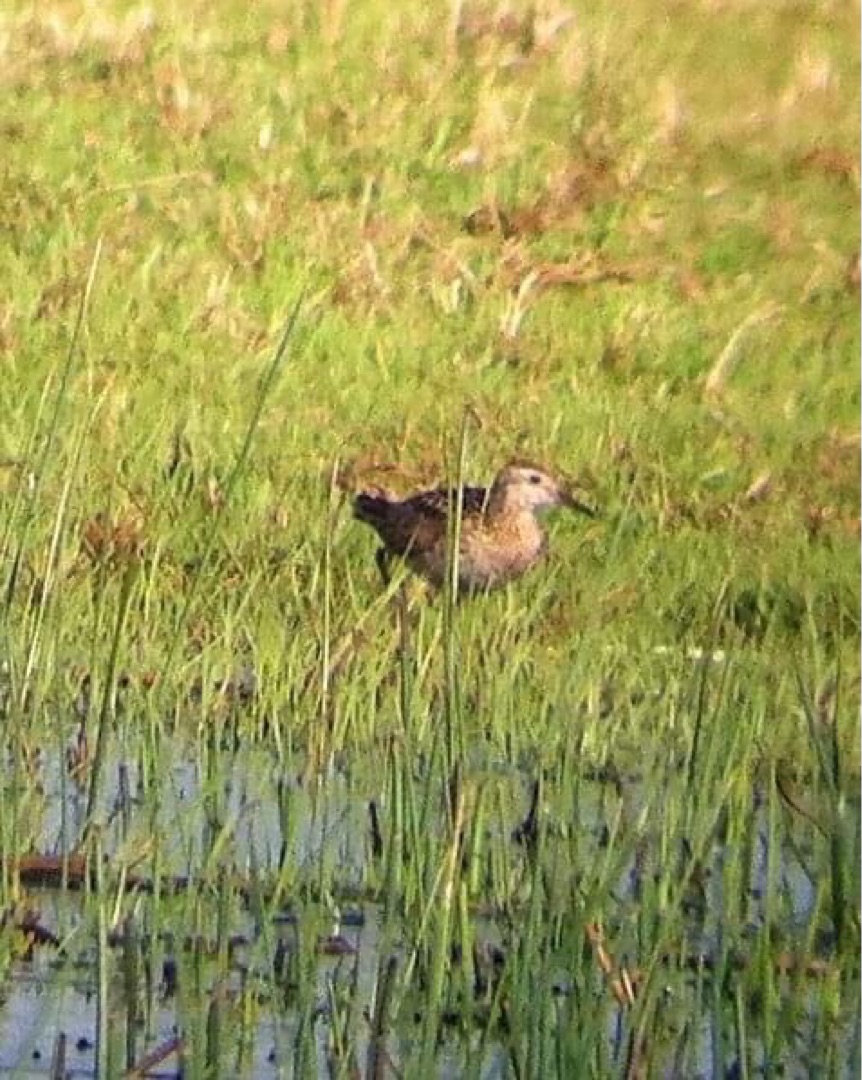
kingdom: Animalia
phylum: Chordata
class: Aves
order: Charadriiformes
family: Scolopacidae
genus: Calidris
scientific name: Calidris acuminata
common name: Spidshalet ryle
